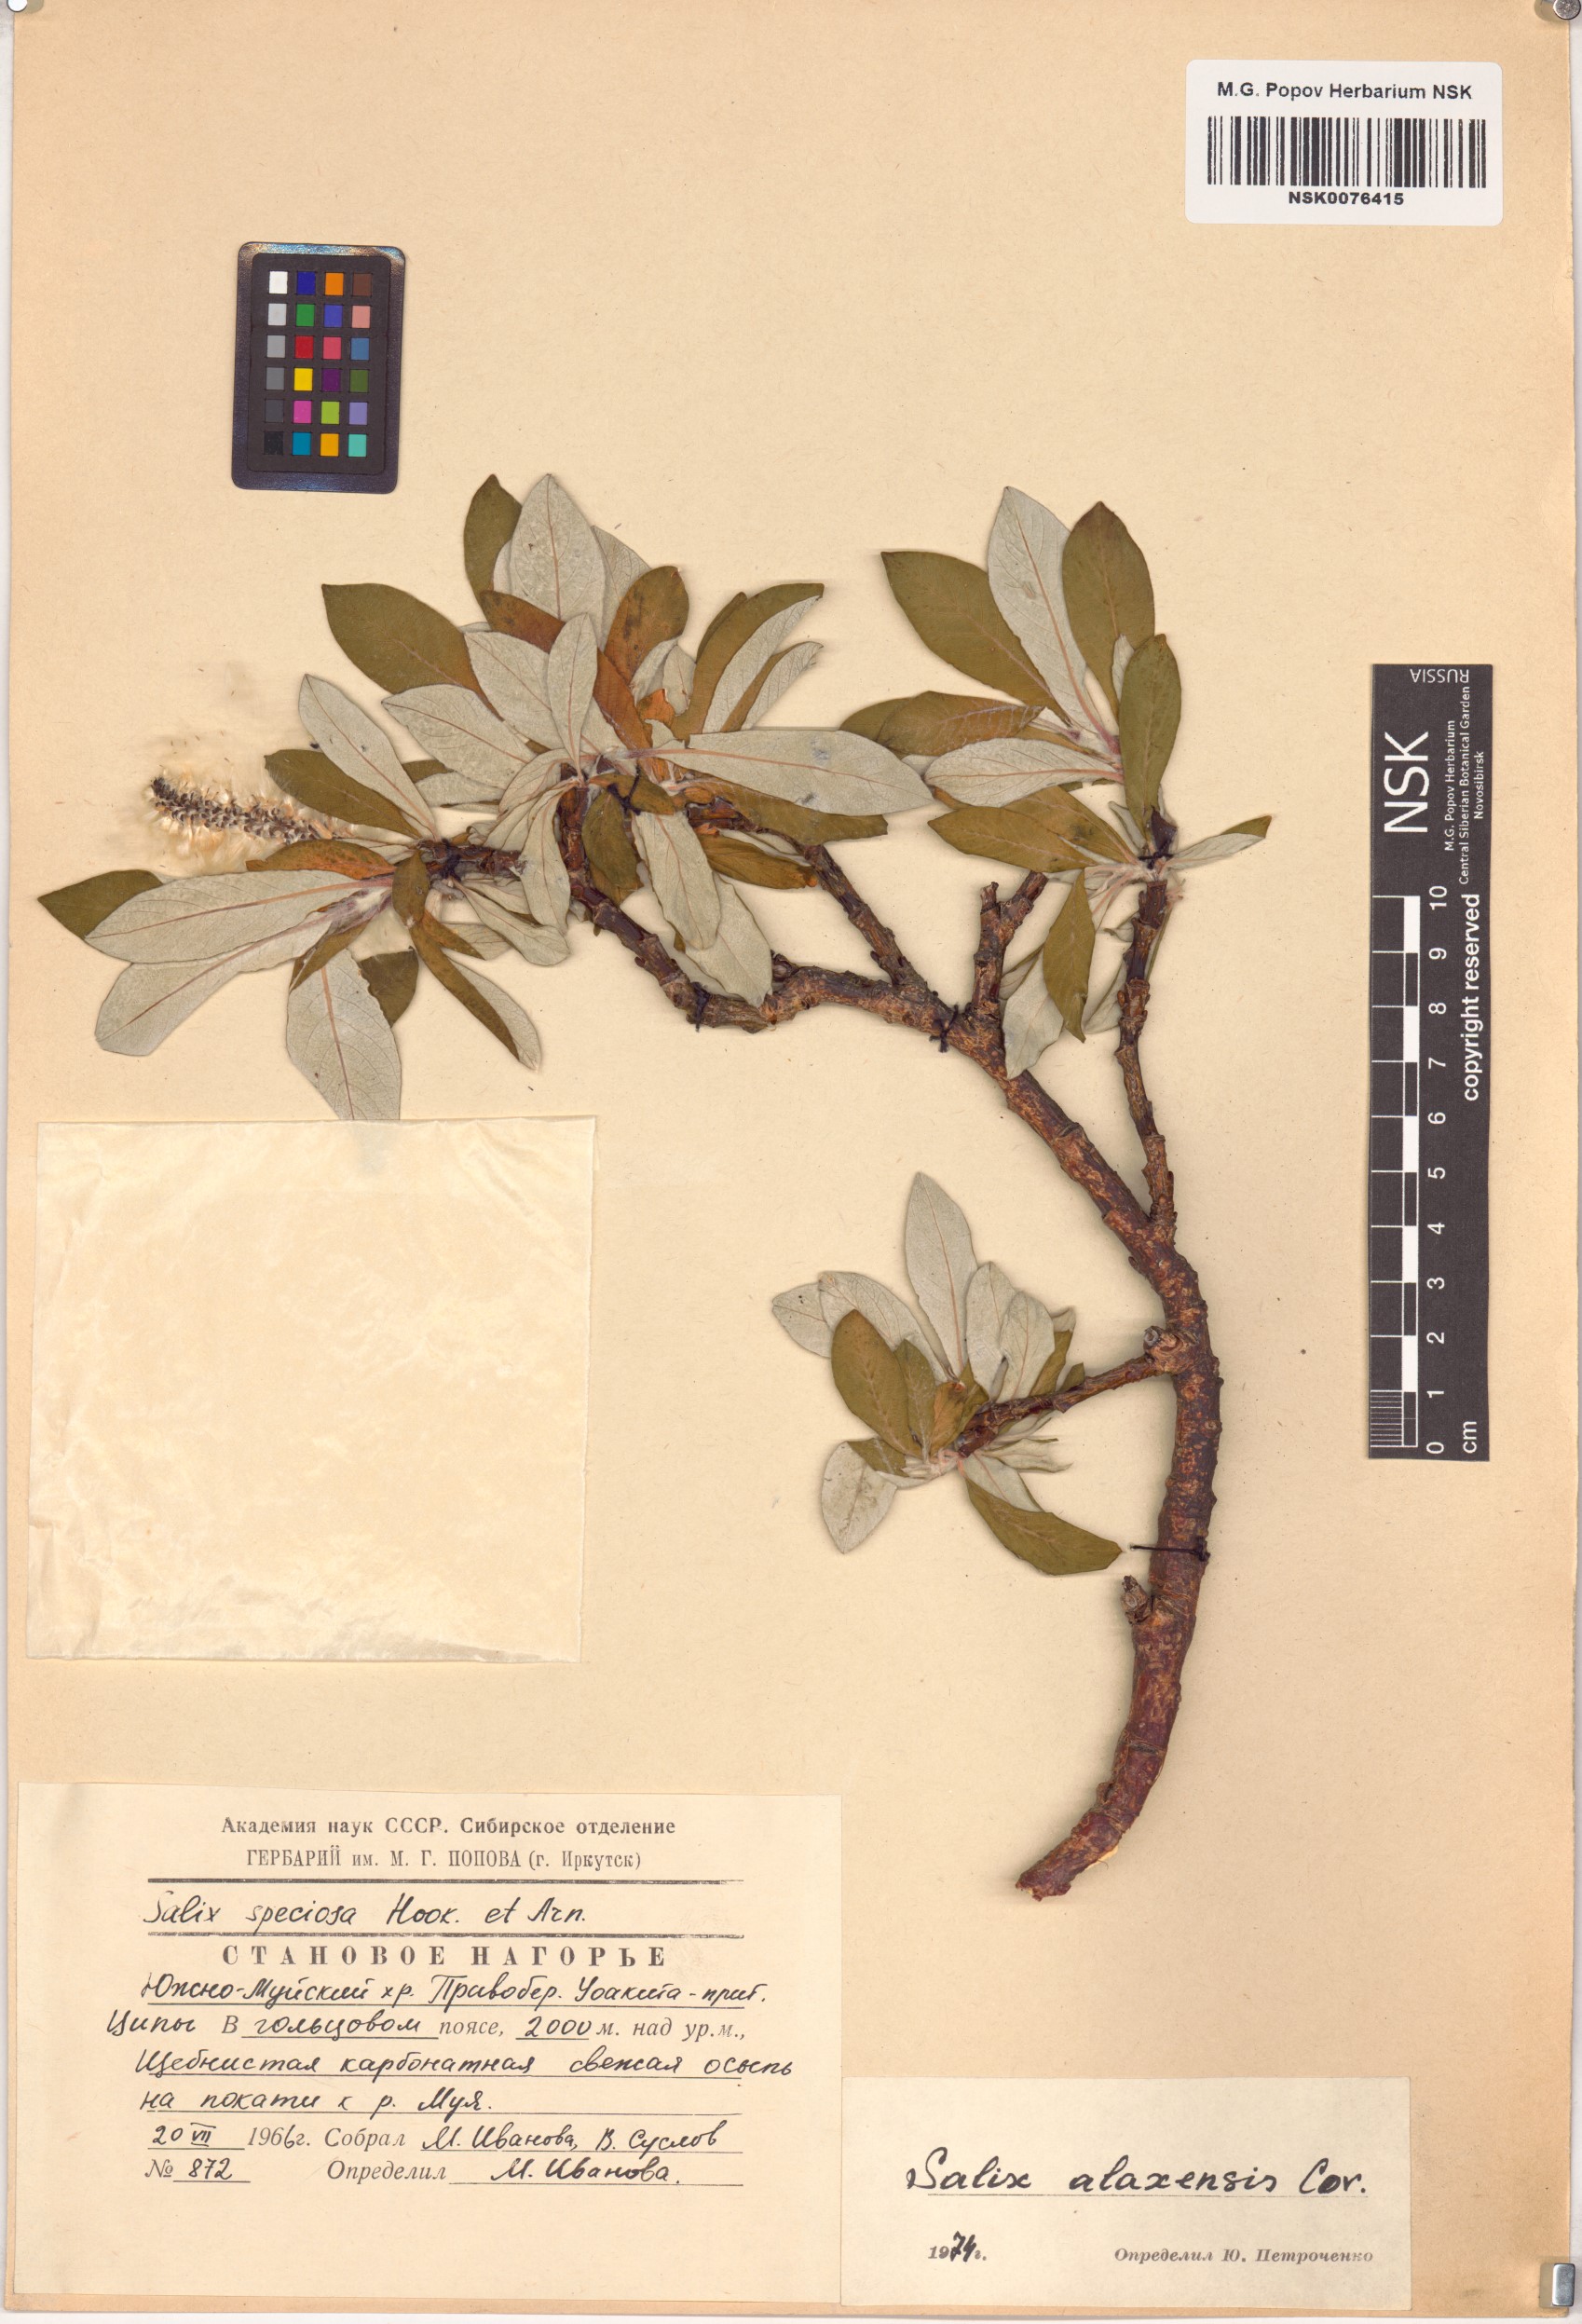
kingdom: Plantae
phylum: Tracheophyta
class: Magnoliopsida
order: Malpighiales
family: Salicaceae
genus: Salix
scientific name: Salix alaxensis
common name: Feltleaf willow
